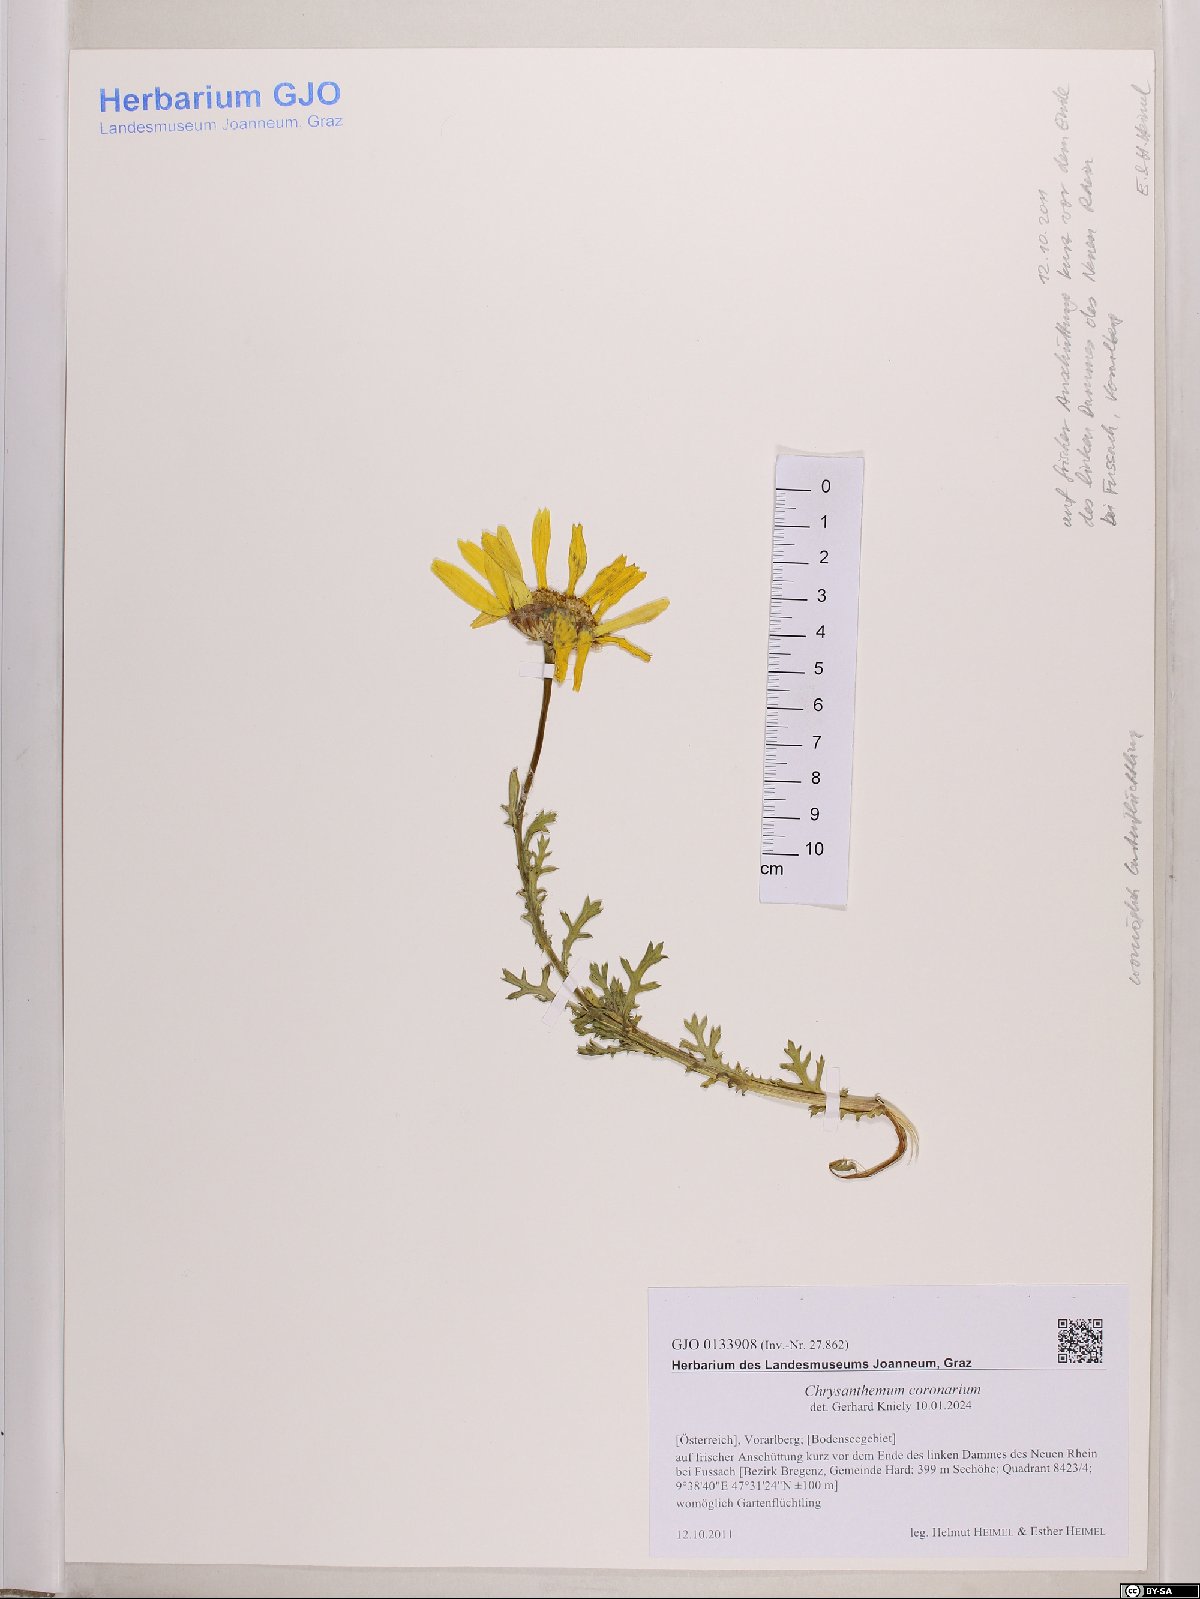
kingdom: Plantae
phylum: Tracheophyta
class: Magnoliopsida
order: Asterales
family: Asteraceae
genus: Glebionis
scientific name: Glebionis coronaria
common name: Crowndaisy
